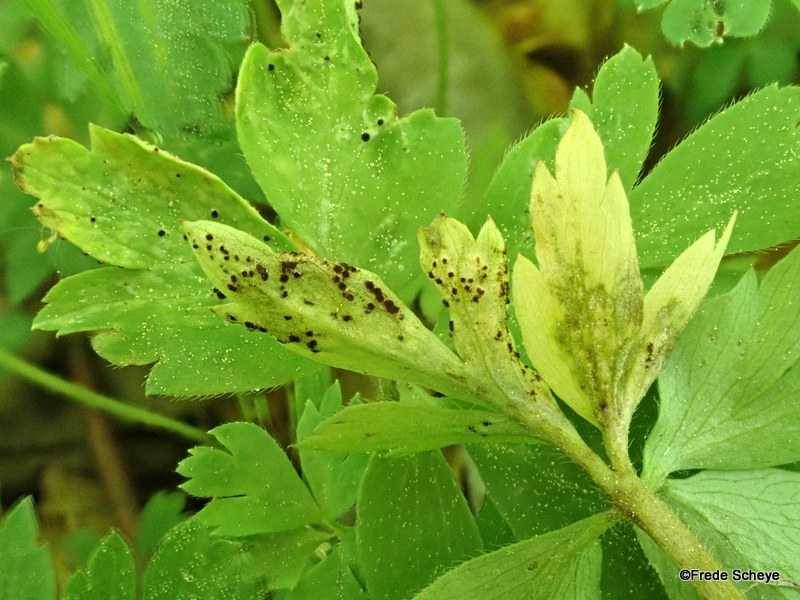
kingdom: Fungi
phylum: Basidiomycota
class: Pucciniomycetes
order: Pucciniales
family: Tranzscheliaceae
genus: Tranzschelia
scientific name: Tranzschelia anemones
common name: anemone-knæksporerust
